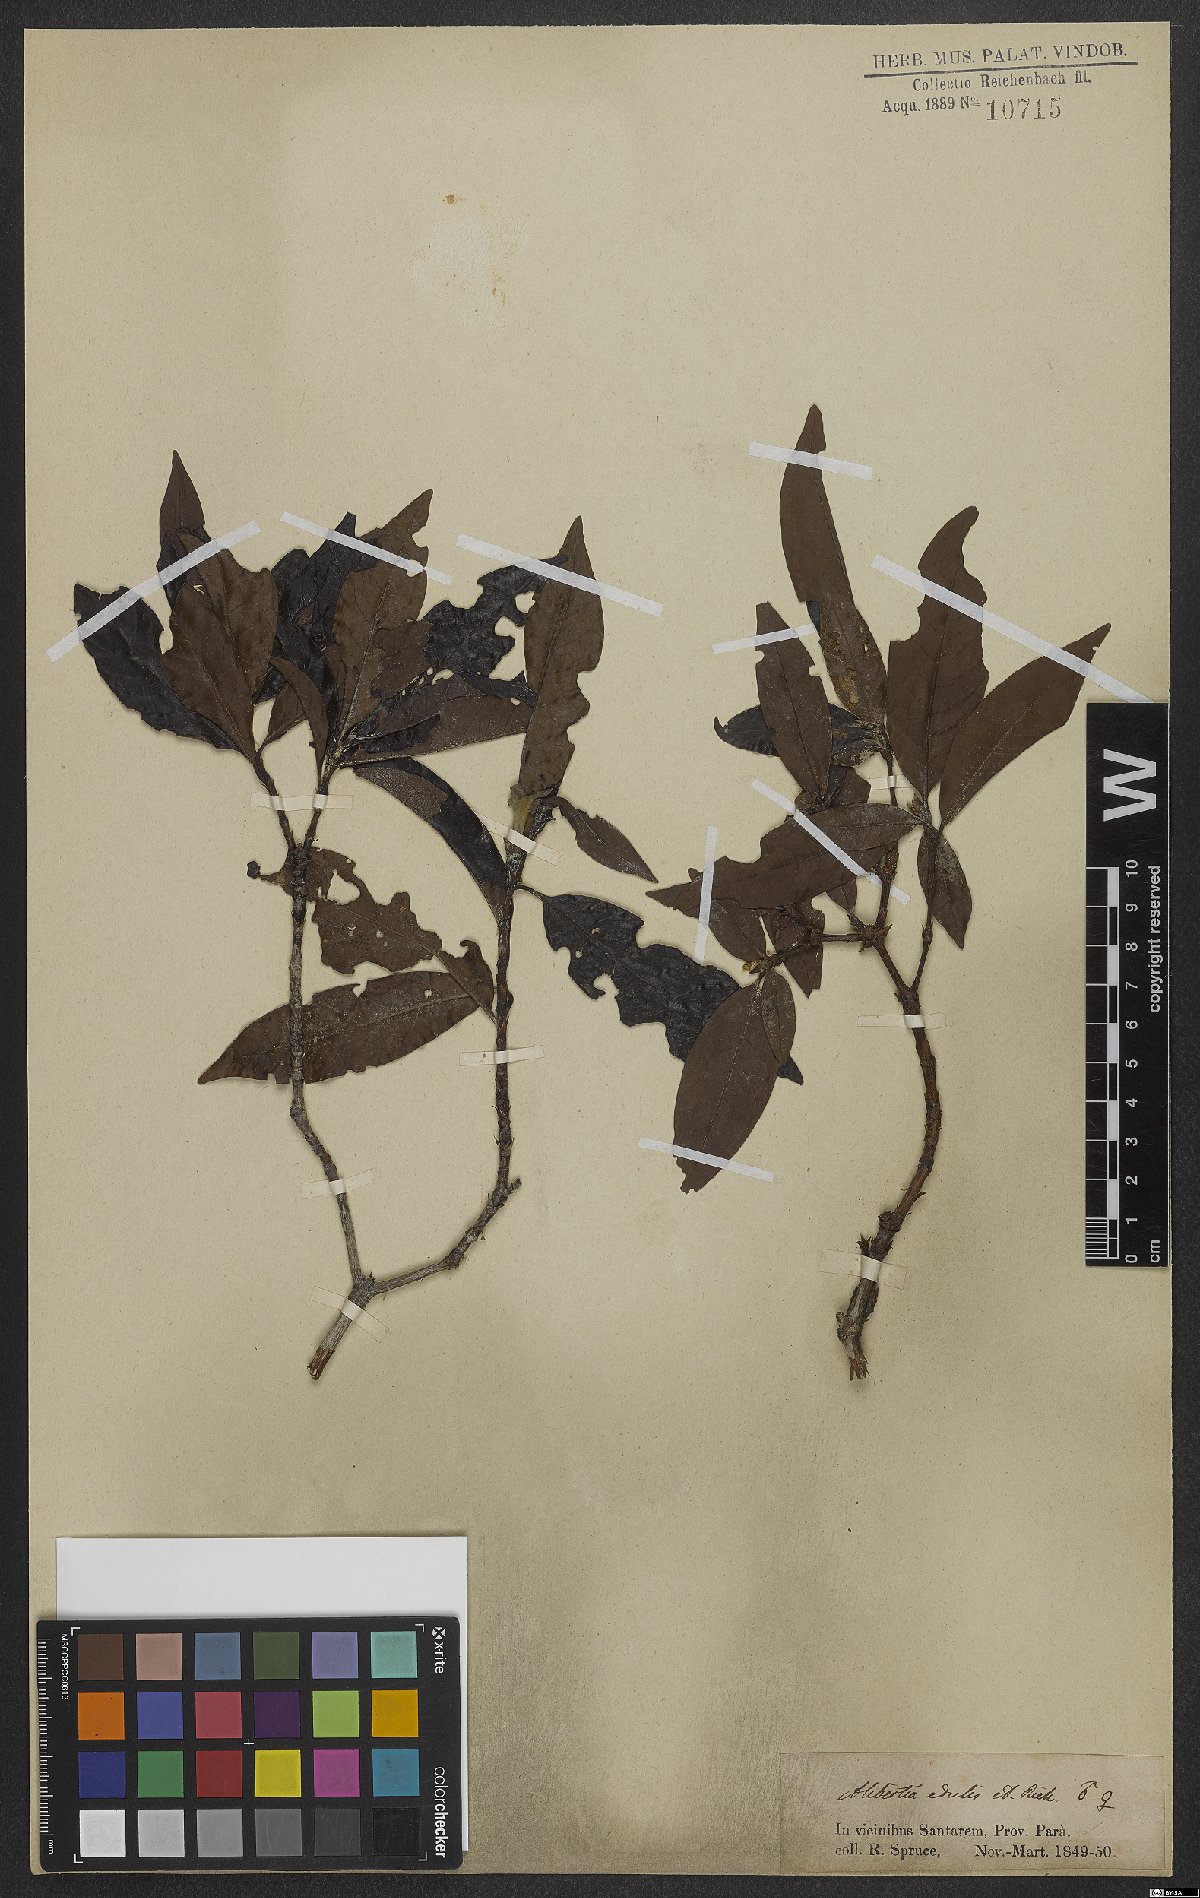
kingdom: Plantae
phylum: Tracheophyta
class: Magnoliopsida
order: Gentianales
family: Rubiaceae
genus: Alibertia
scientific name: Alibertia edulis
